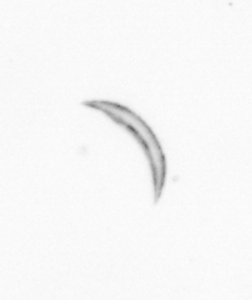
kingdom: Chromista
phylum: Ochrophyta
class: Bacillariophyceae
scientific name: Bacillariophyceae
